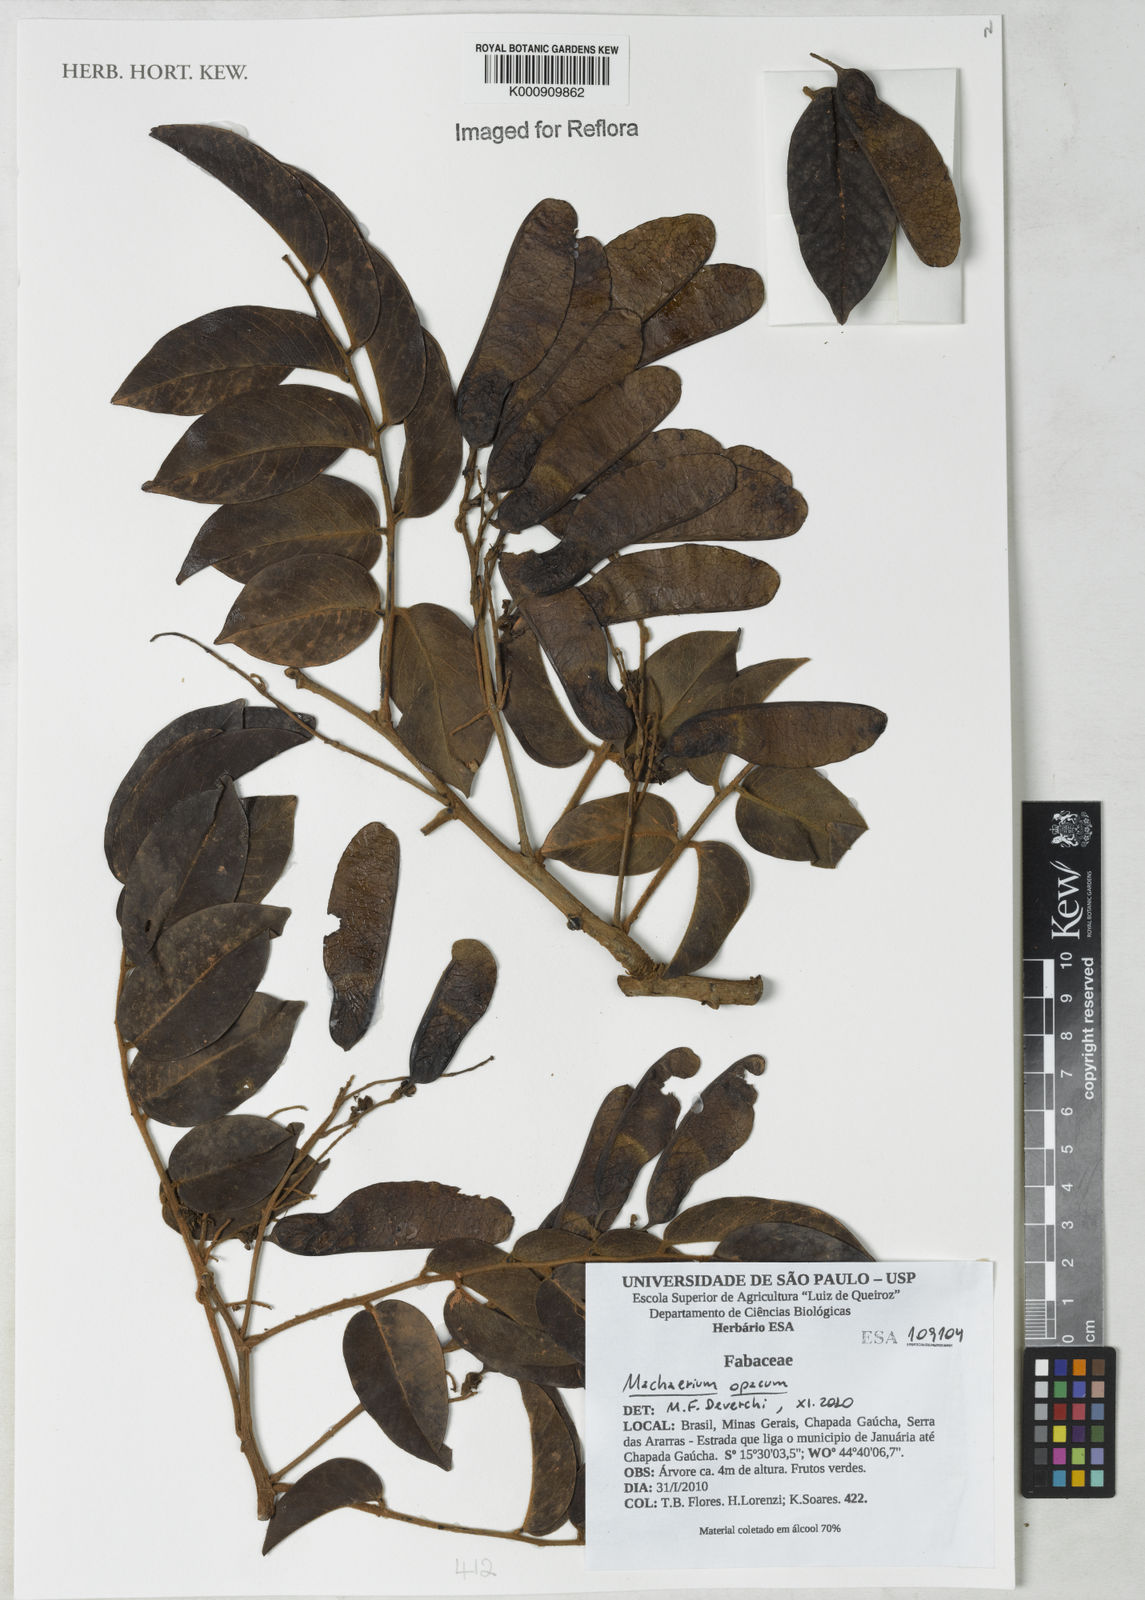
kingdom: Plantae
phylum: Tracheophyta
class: Magnoliopsida
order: Fabales
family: Fabaceae
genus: Machaerium
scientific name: Machaerium opacum
